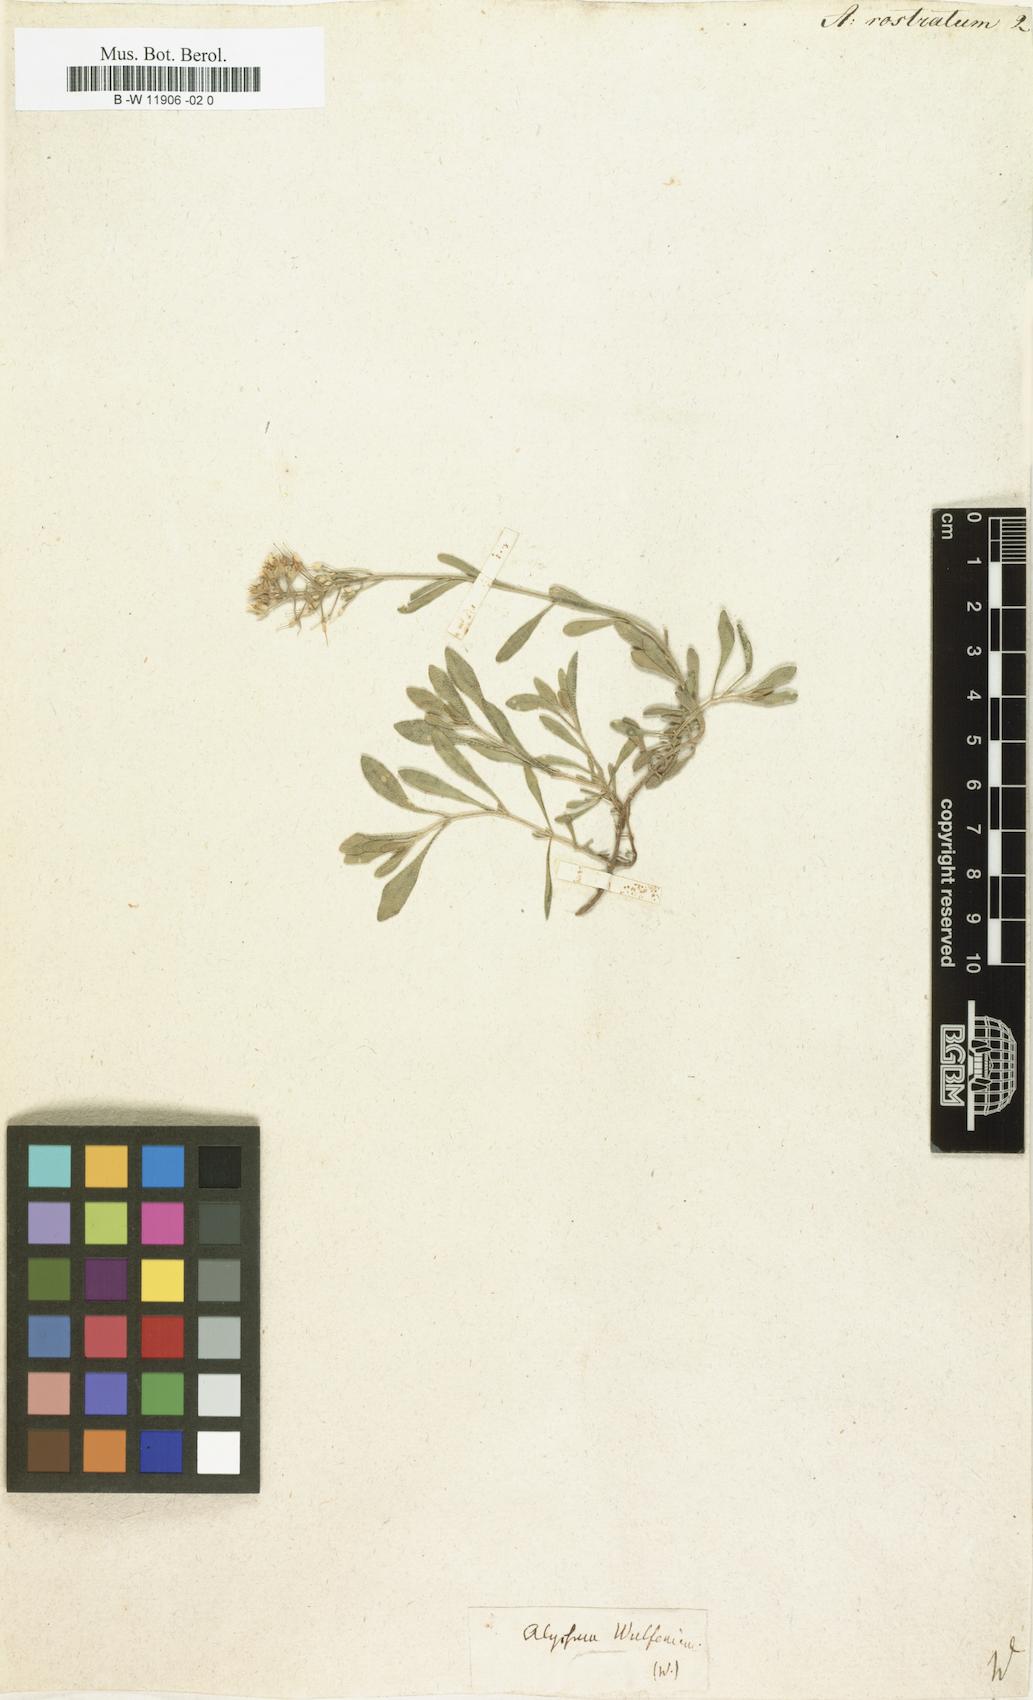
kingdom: Plantae
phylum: Tracheophyta
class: Magnoliopsida
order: Brassicales
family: Brassicaceae
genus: Alyssum
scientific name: Alyssum rostratum
